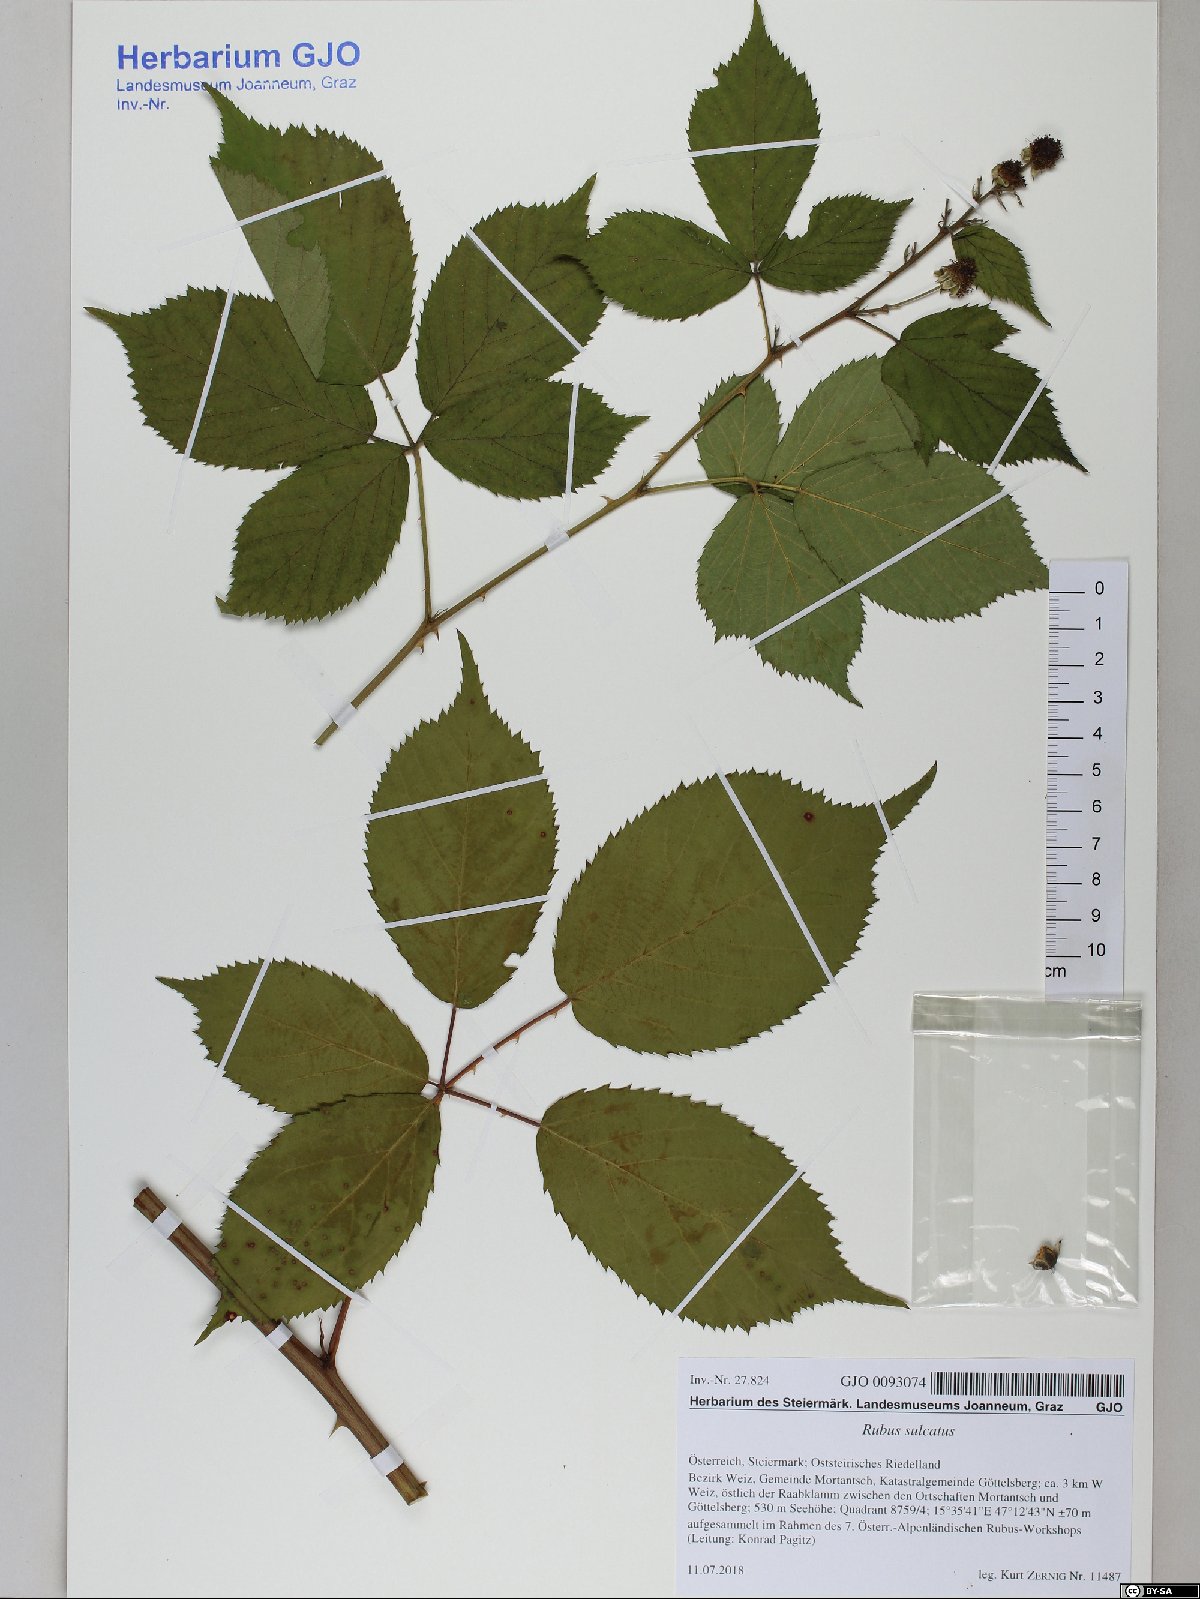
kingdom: Plantae
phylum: Tracheophyta
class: Magnoliopsida
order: Rosales
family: Rosaceae
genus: Rubus
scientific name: Rubus sulcatus
